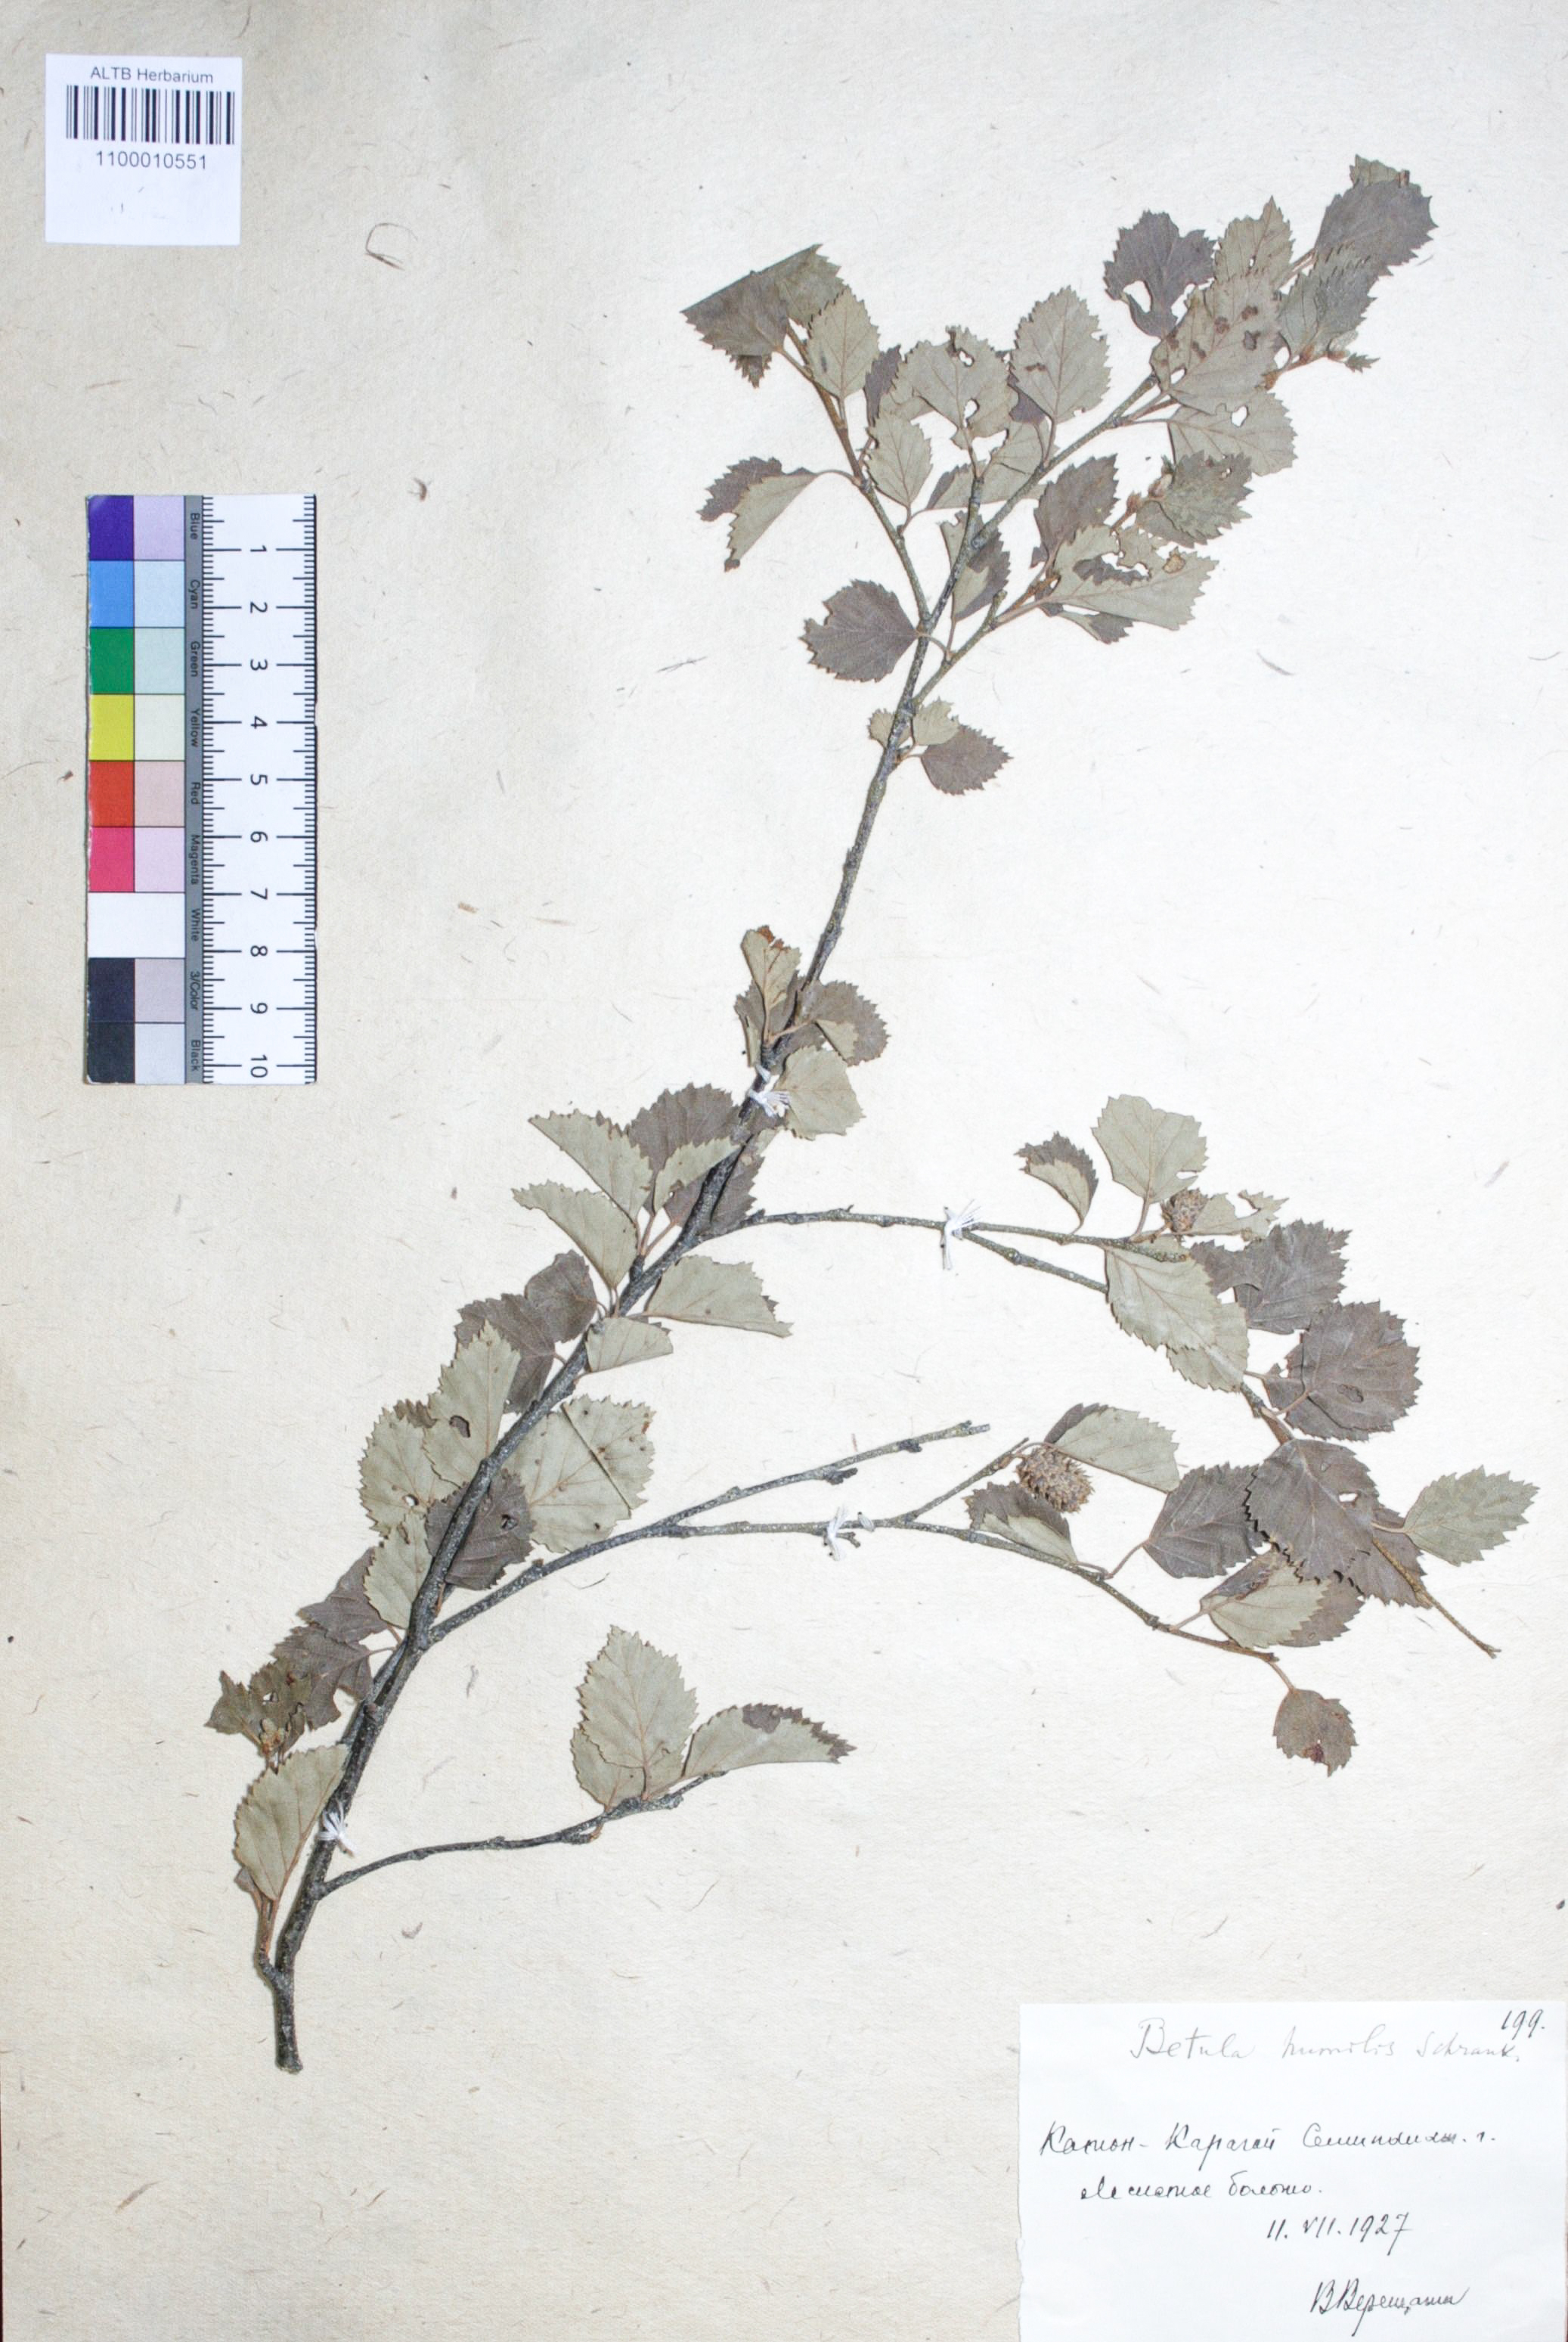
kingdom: Plantae
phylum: Tracheophyta
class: Magnoliopsida
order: Fagales
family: Betulaceae
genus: Betula
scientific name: Betula humilis
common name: Shrubby birch
